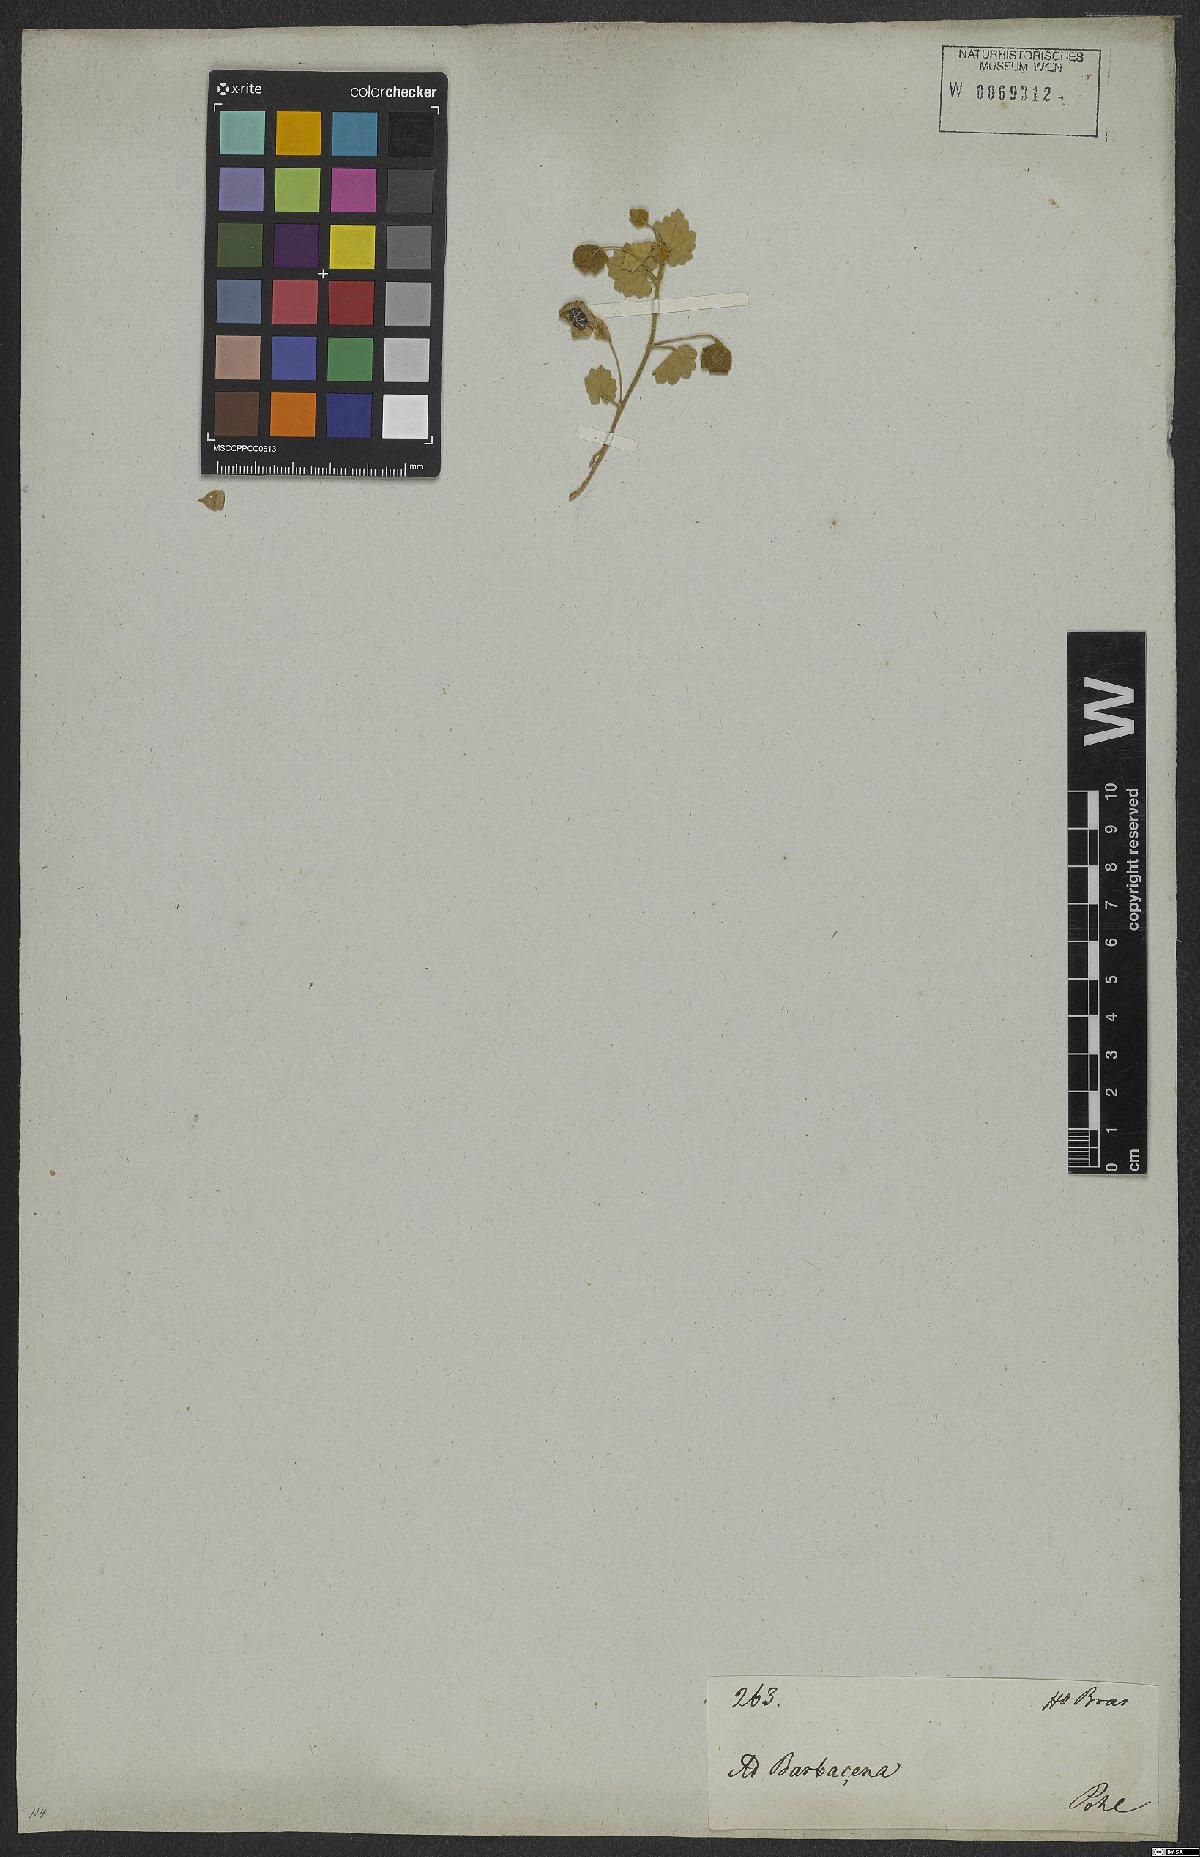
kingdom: Plantae
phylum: Tracheophyta
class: Magnoliopsida
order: Malvales
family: Malvaceae
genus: Krapovickasia
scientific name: Krapovickasia macrodon
